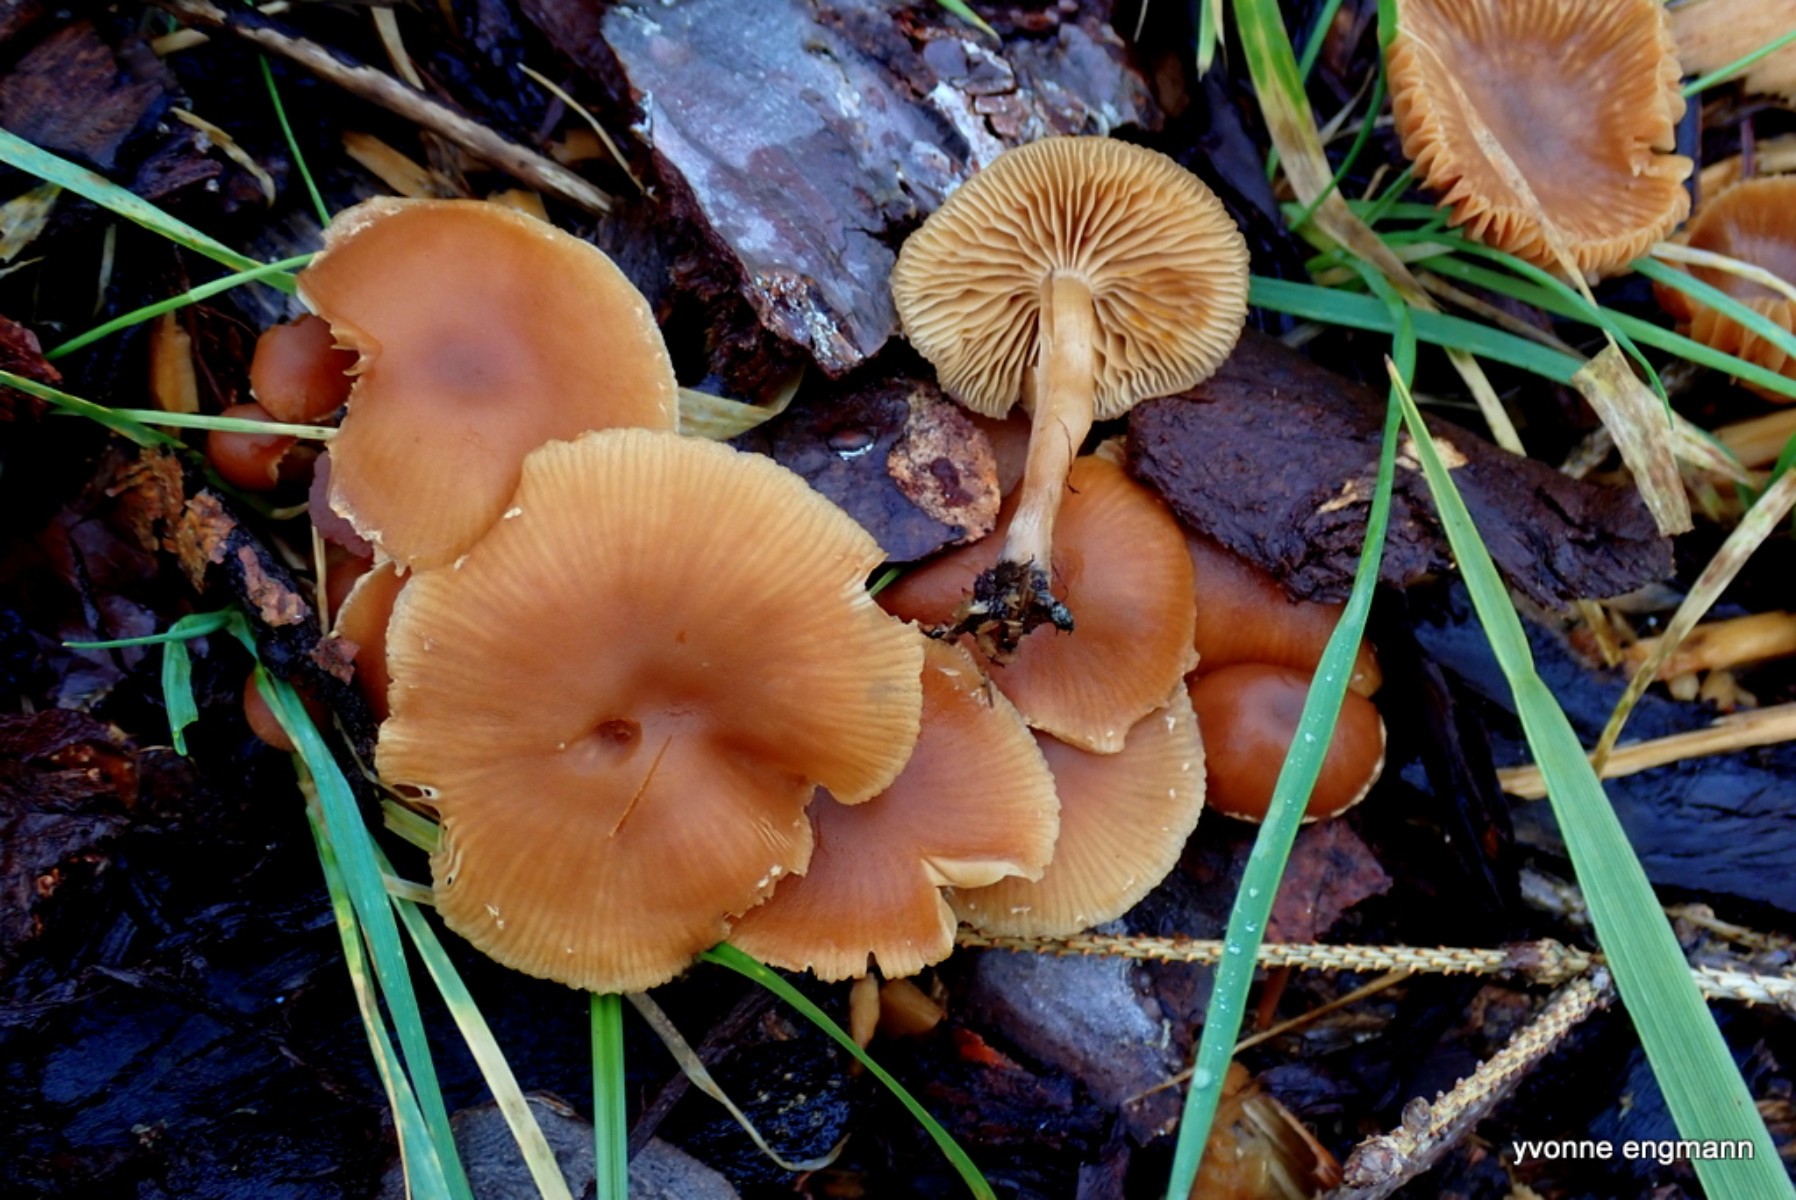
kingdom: Fungi
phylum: Basidiomycota
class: Agaricomycetes
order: Agaricales
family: Tubariaceae
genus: Tubaria
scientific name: Tubaria furfuracea
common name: kliddet fnughat
